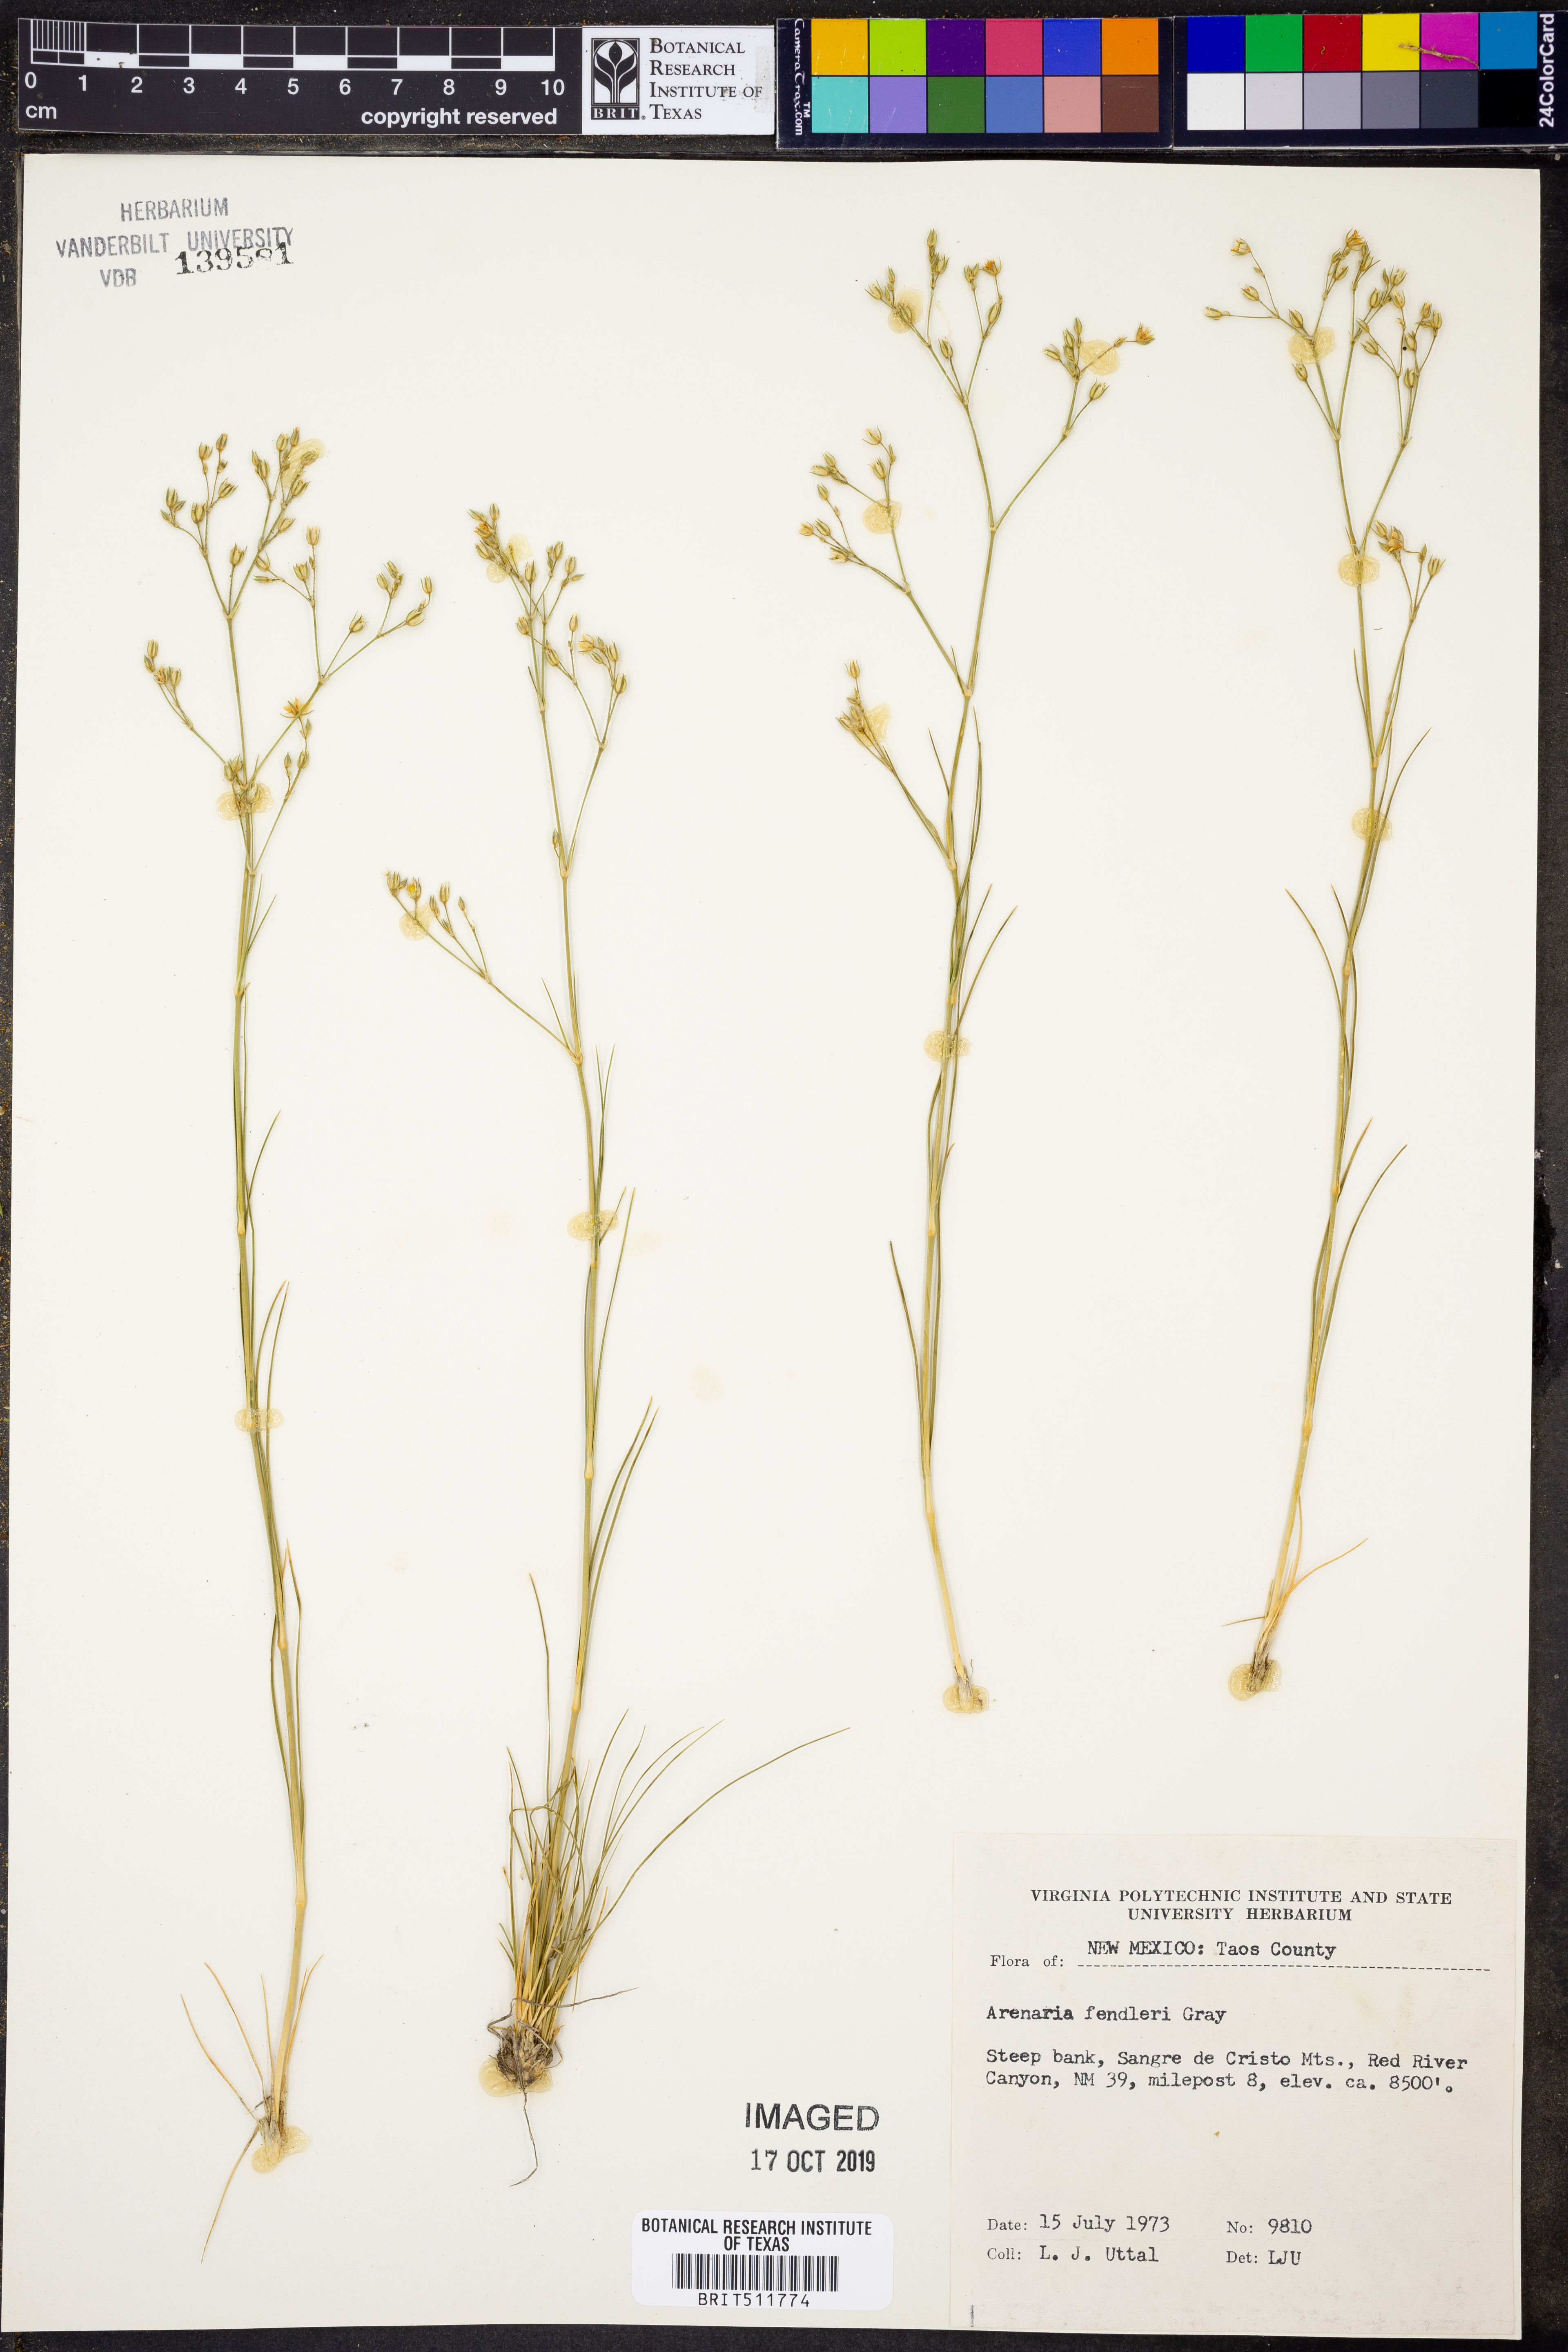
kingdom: Plantae
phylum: Tracheophyta
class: Magnoliopsida
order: Caryophyllales
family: Caryophyllaceae
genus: Eremogone
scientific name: Eremogone fendleri
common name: Fendler's sandwort
